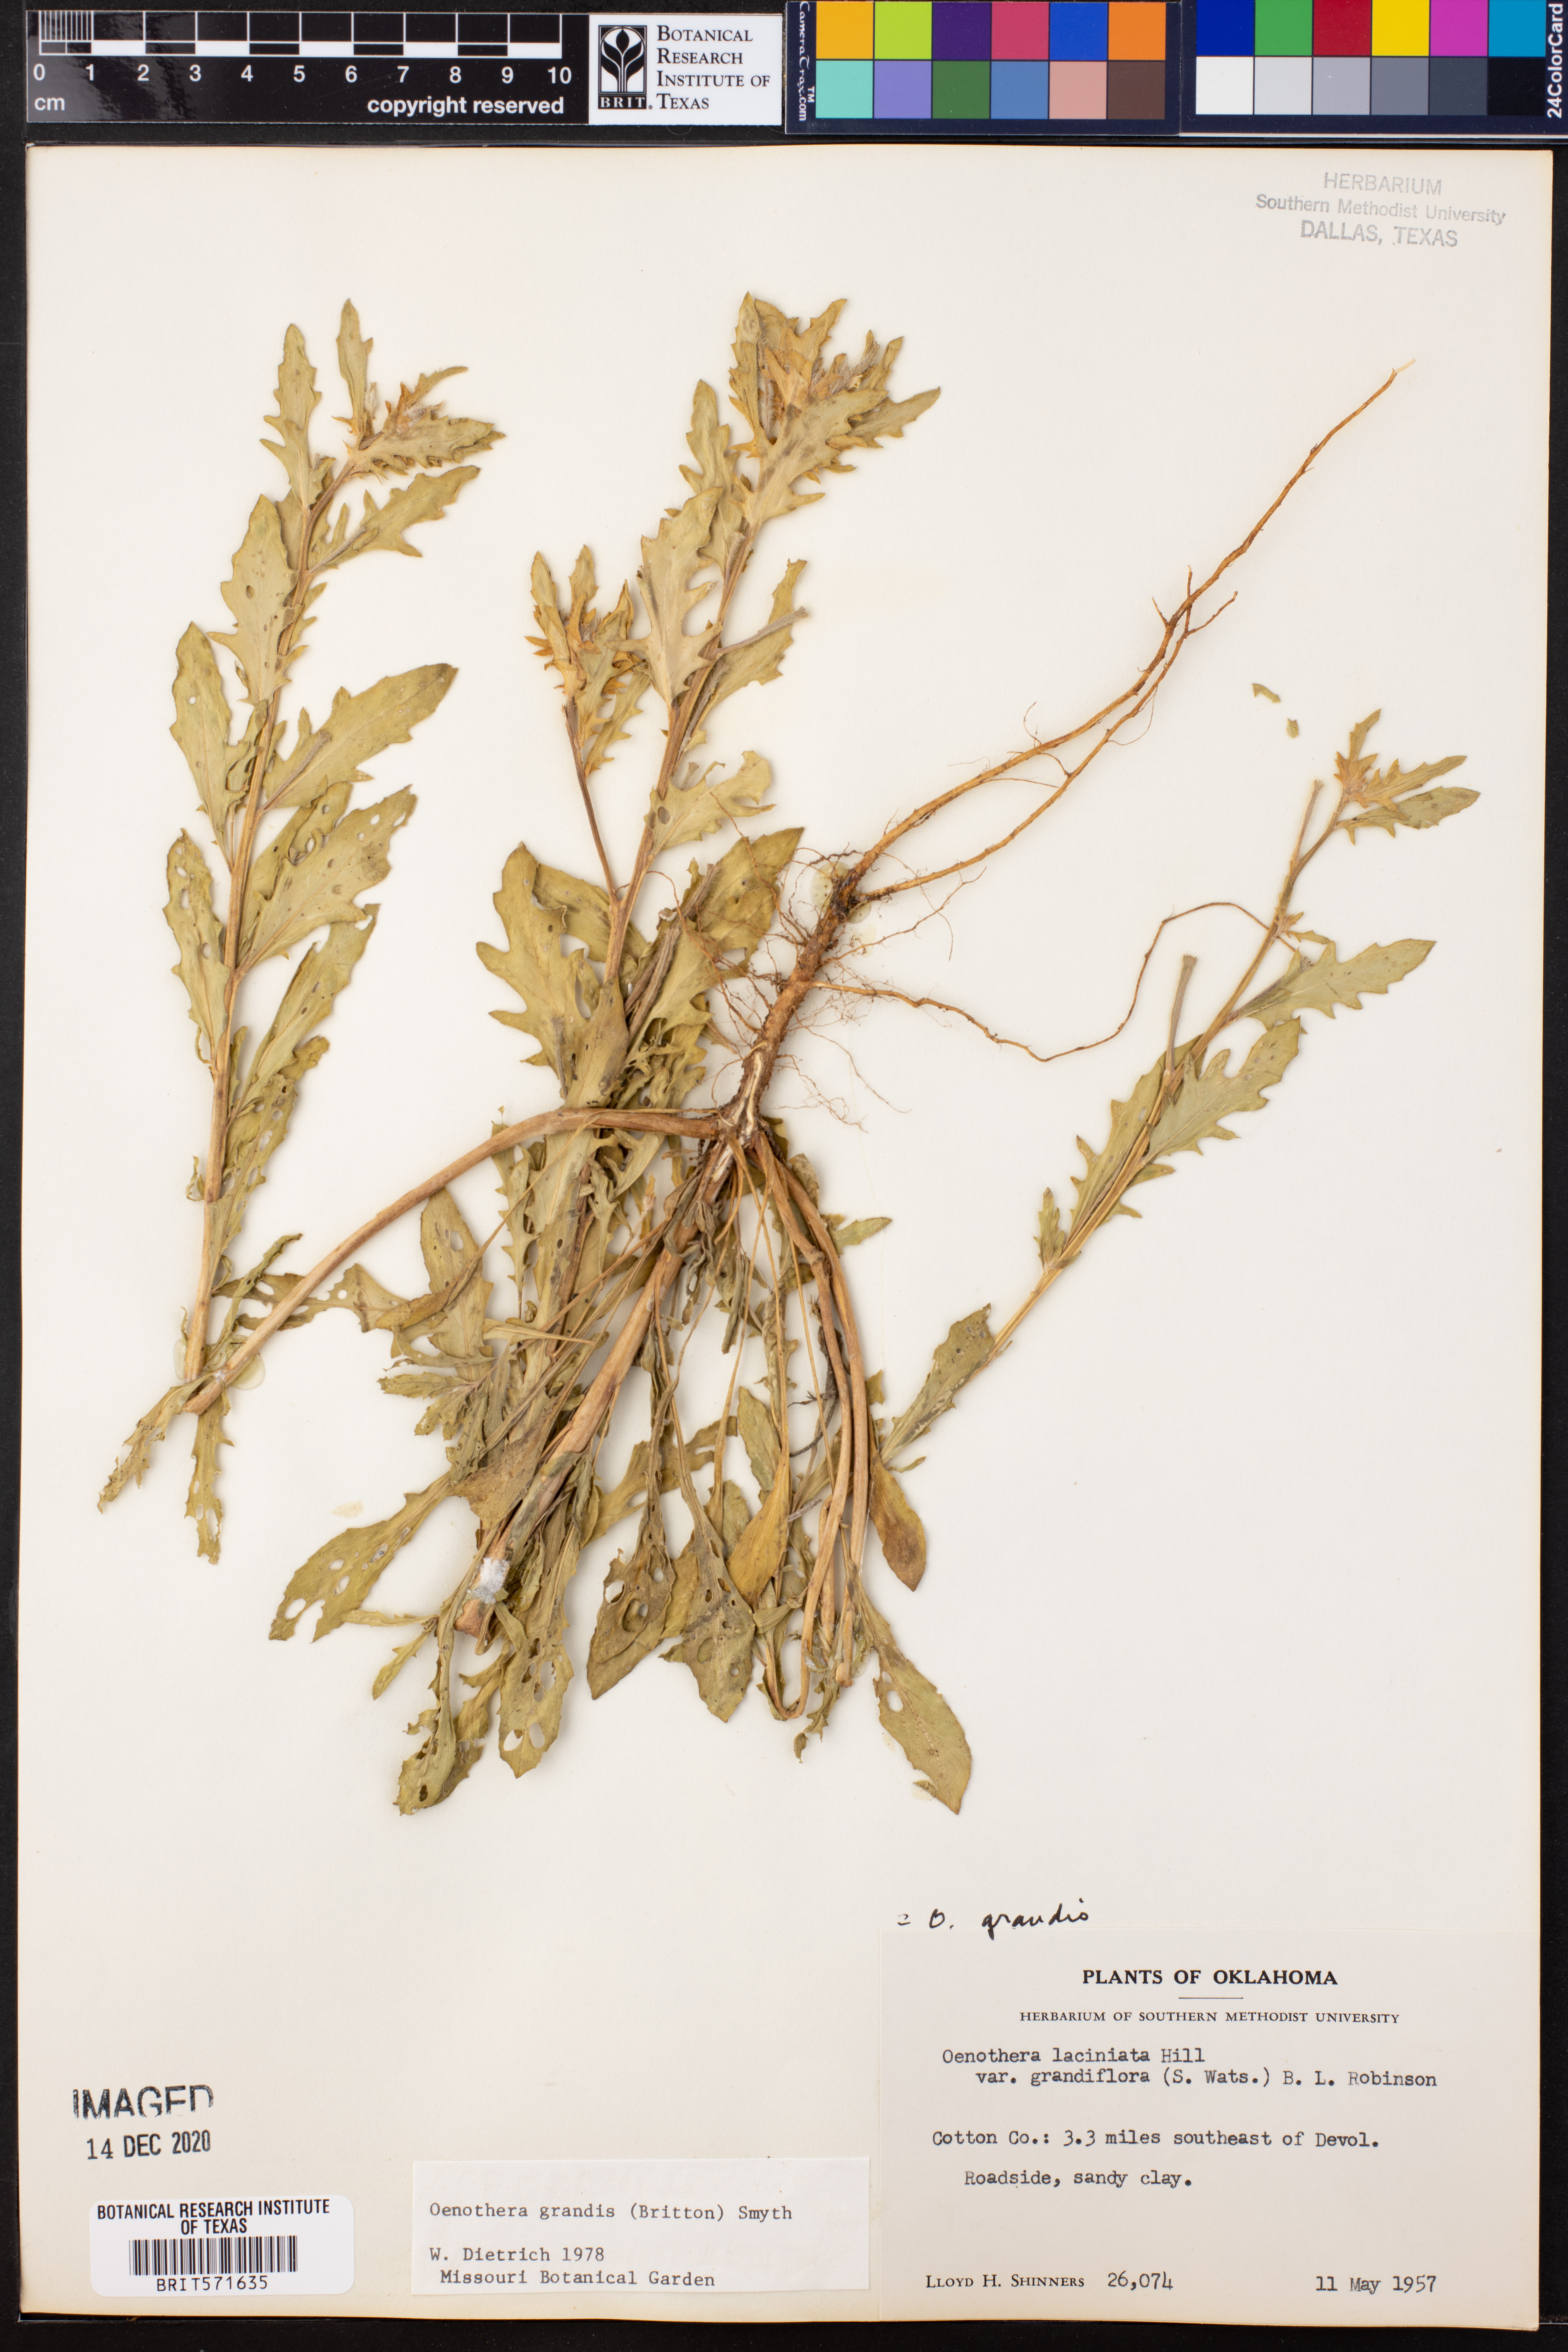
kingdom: Plantae
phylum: Tracheophyta
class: Magnoliopsida
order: Myrtales
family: Onagraceae
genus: Oenothera
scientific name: Oenothera grandis
